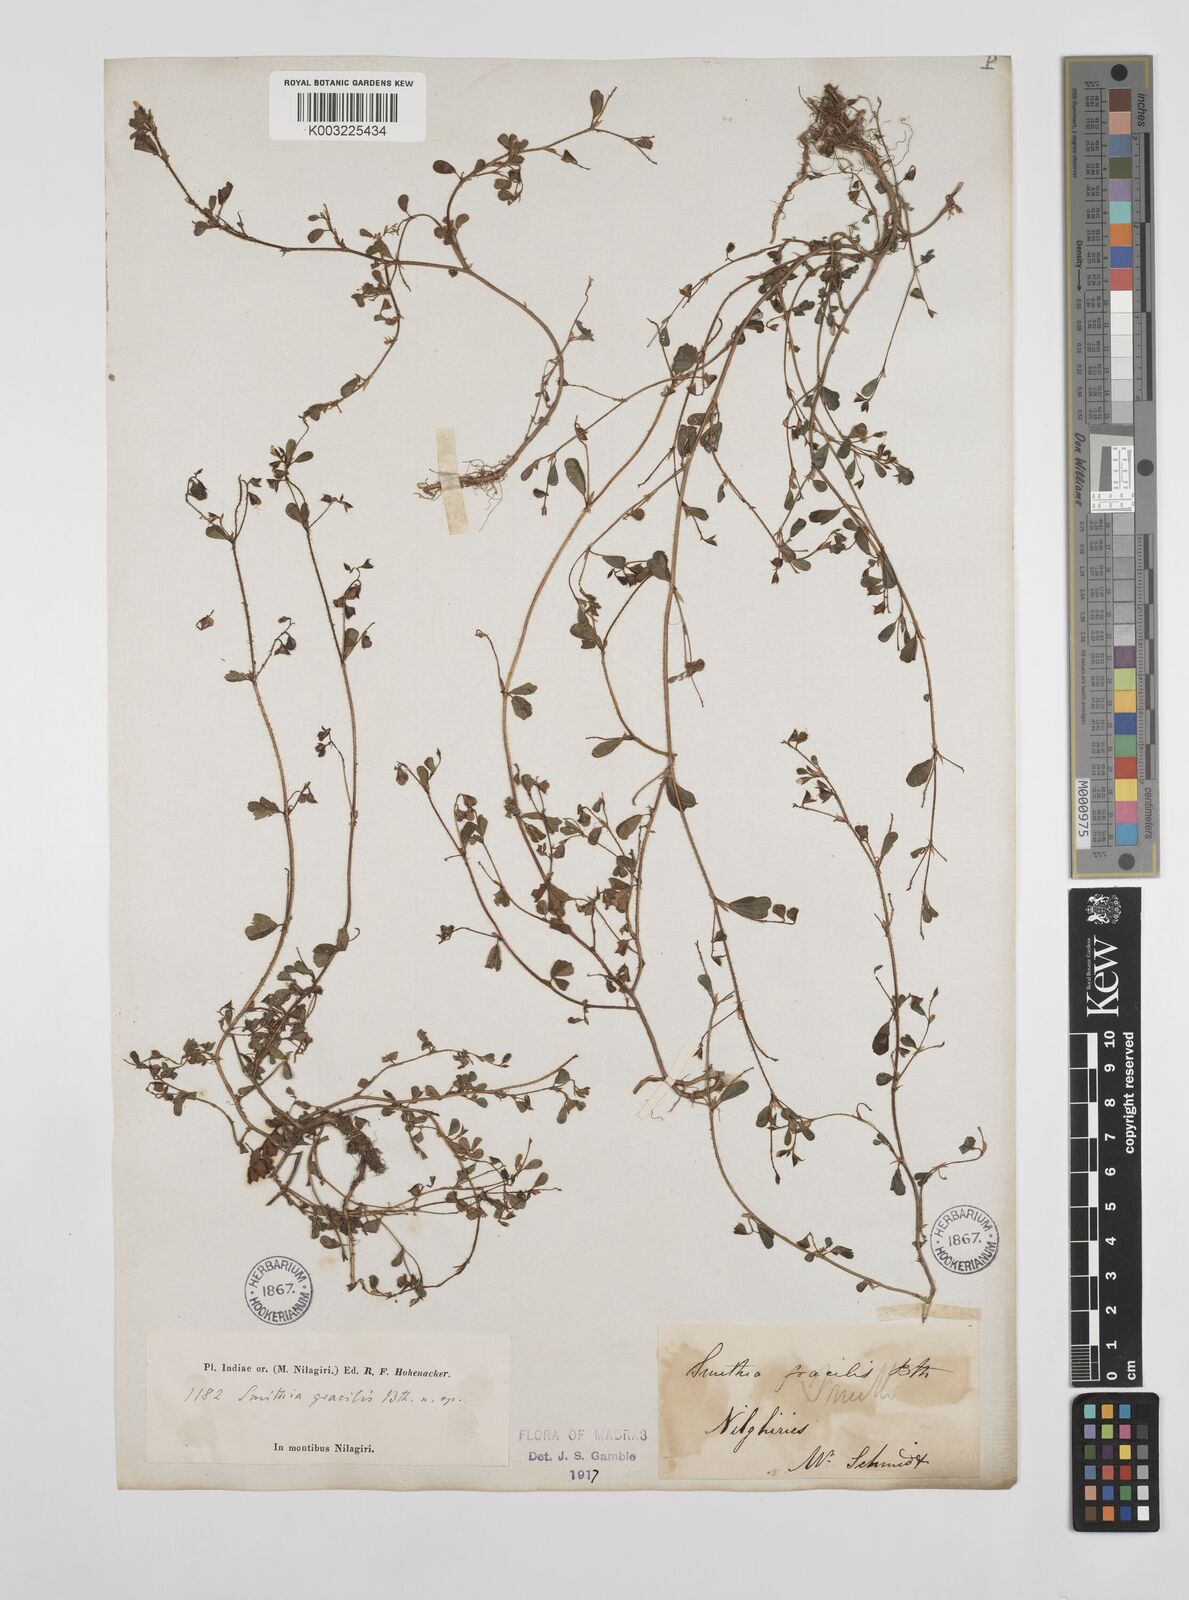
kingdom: Plantae
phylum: Tracheophyta
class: Magnoliopsida
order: Fabales
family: Fabaceae
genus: Smithia
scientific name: Smithia gracilis
